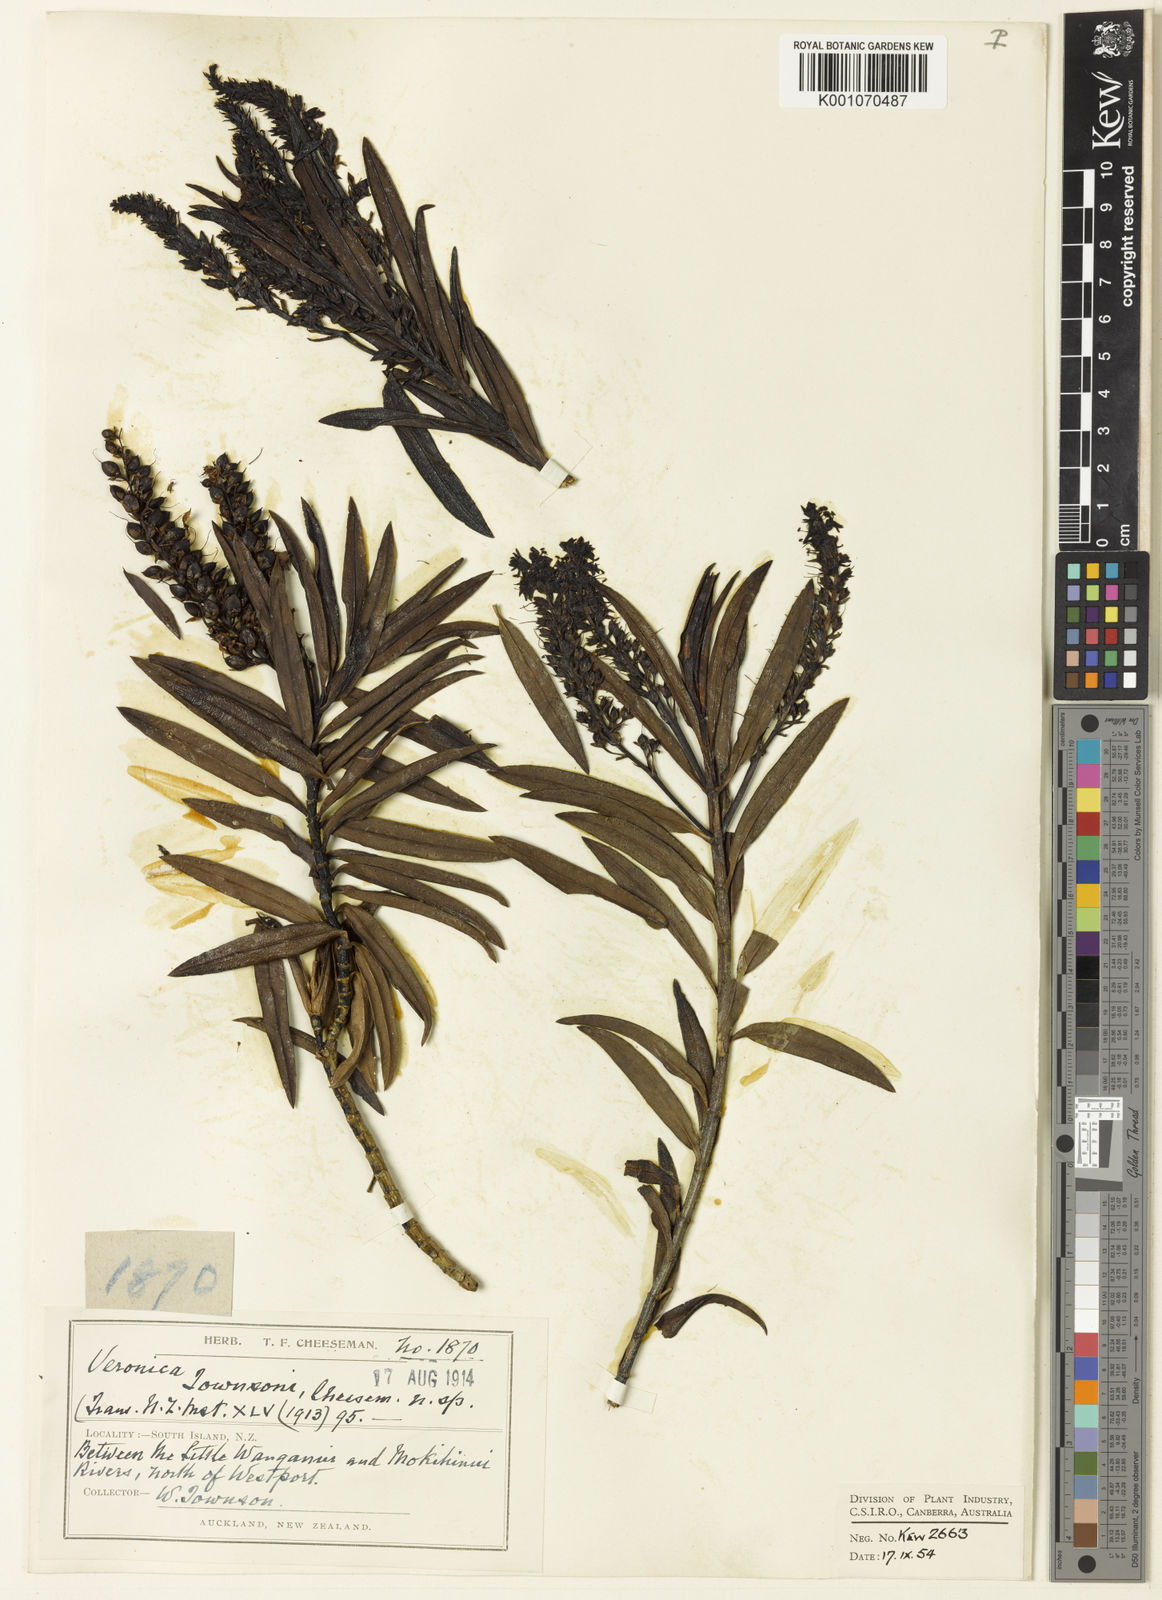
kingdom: Plantae
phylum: Tracheophyta
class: Magnoliopsida
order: Lamiales
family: Plantaginaceae
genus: Veronica
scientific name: Veronica townsonii
